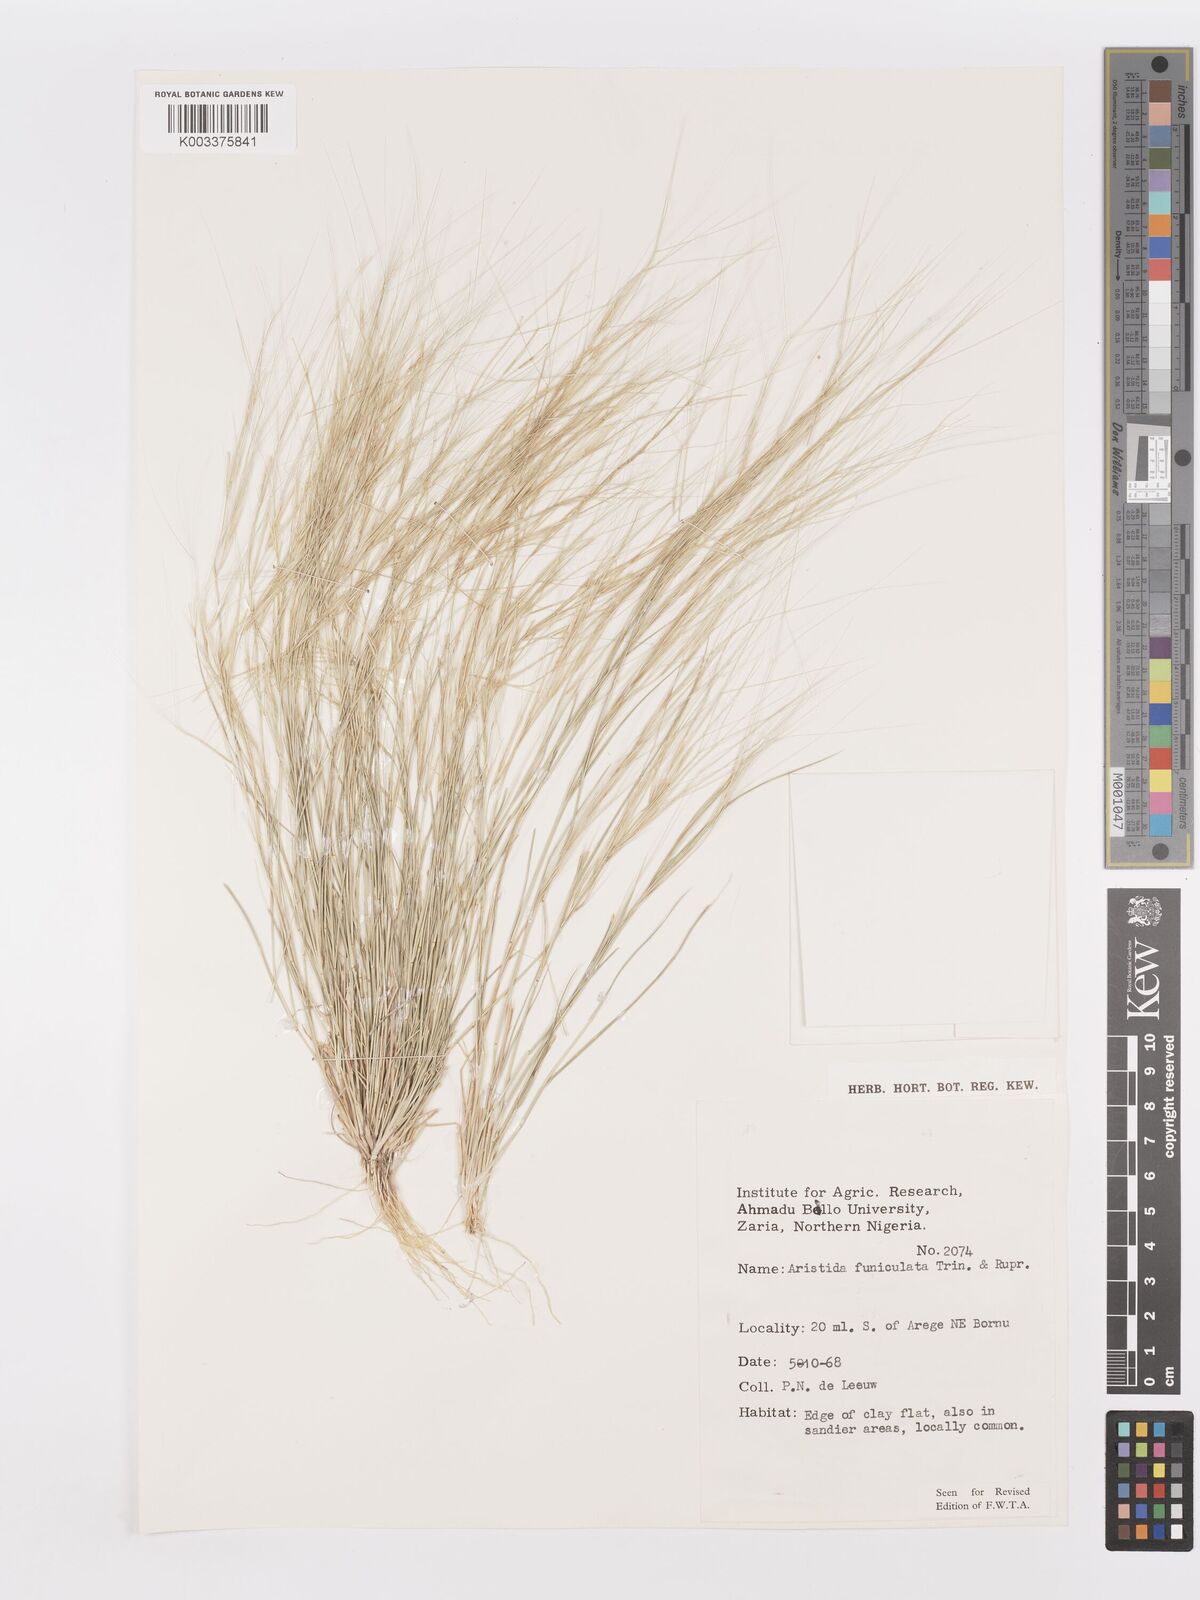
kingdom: Plantae
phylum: Tracheophyta
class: Liliopsida
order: Poales
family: Poaceae
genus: Aristida
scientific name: Aristida funiculata
